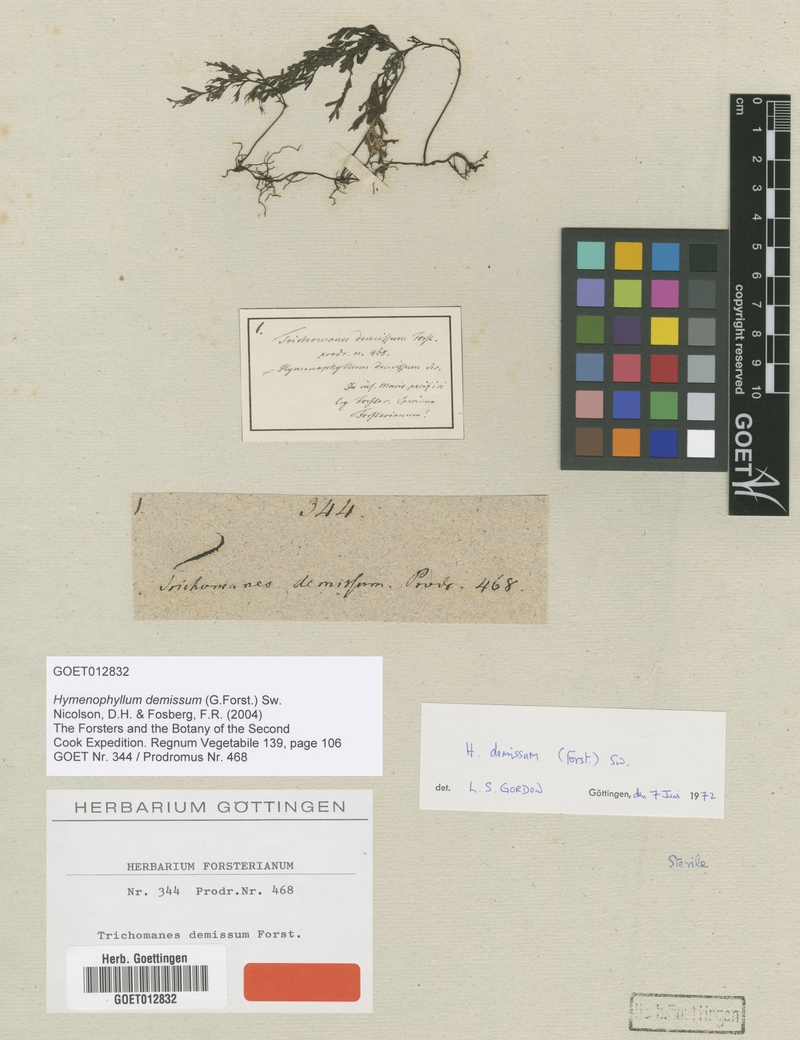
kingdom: Plantae
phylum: Tracheophyta
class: Polypodiopsida
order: Hymenophyllales
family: Hymenophyllaceae
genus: Hymenophyllum
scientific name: Hymenophyllum demissum
